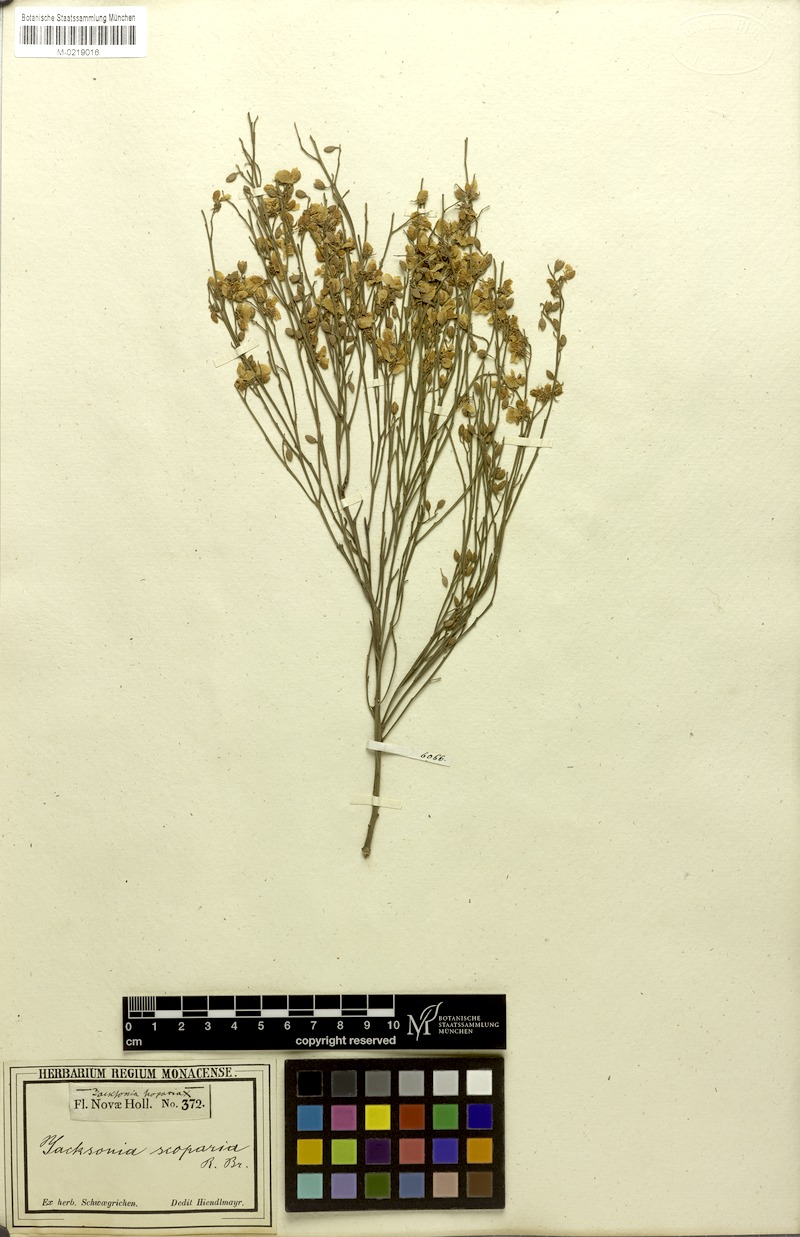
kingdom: Plantae
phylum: Tracheophyta
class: Magnoliopsida
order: Fabales
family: Fabaceae
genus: Jacksonia
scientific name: Jacksonia scoparia
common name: Dogwood
